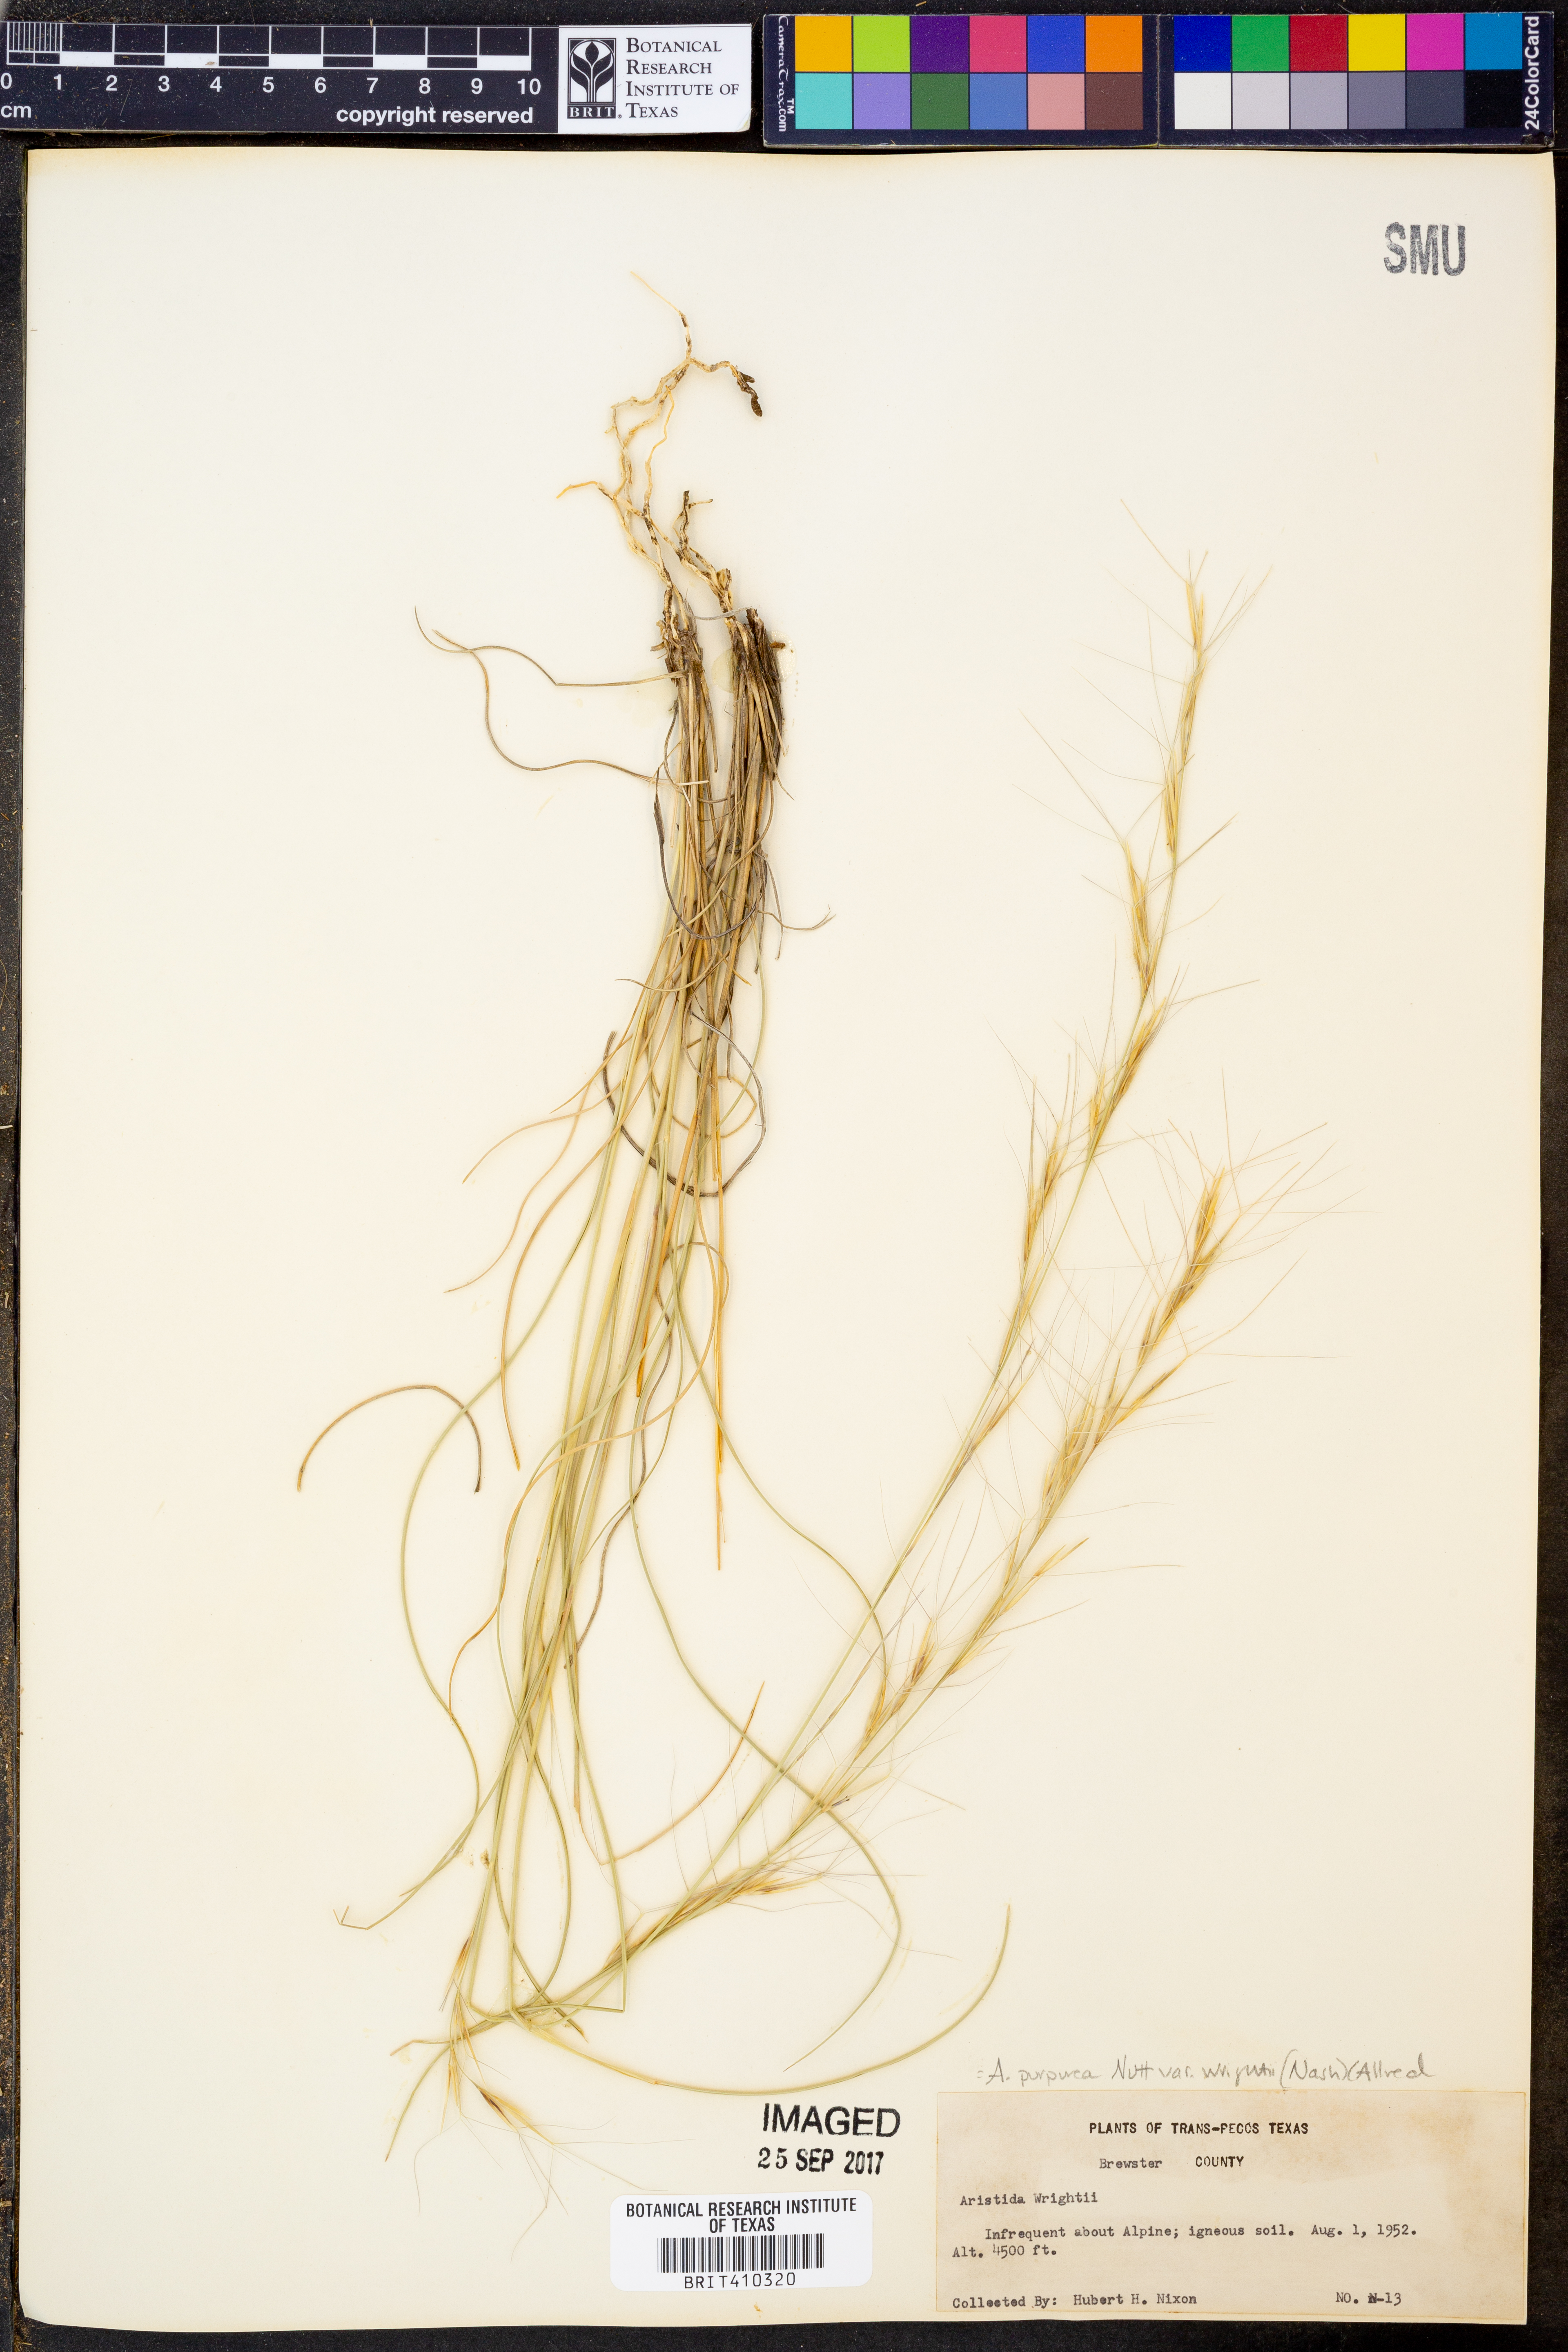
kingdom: Plantae
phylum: Tracheophyta
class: Liliopsida
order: Poales
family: Poaceae
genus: Aristida
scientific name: Aristida wrightii
